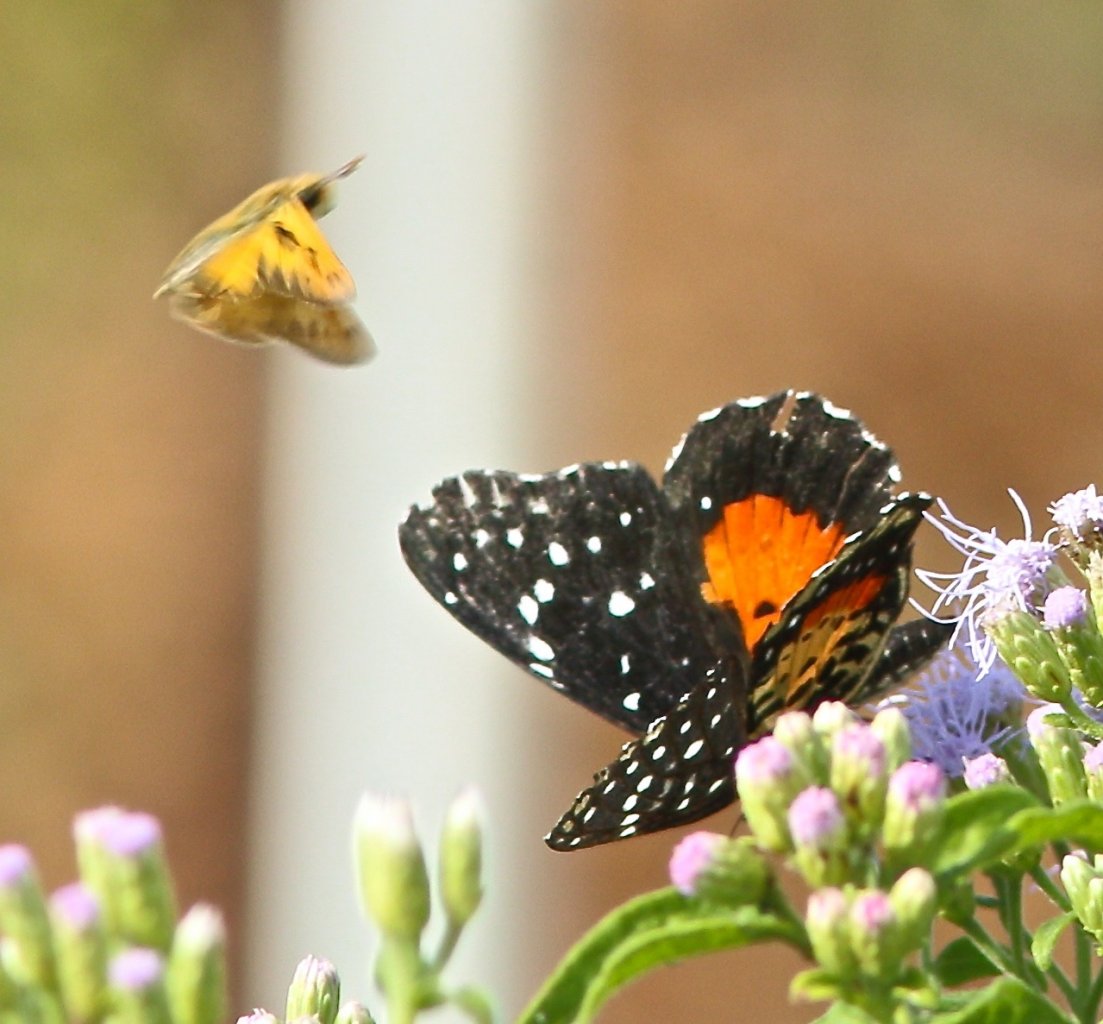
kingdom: Animalia
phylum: Arthropoda
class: Insecta
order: Lepidoptera
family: Nymphalidae
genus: Chlosyne
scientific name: Chlosyne janais
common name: Crimson Patch
